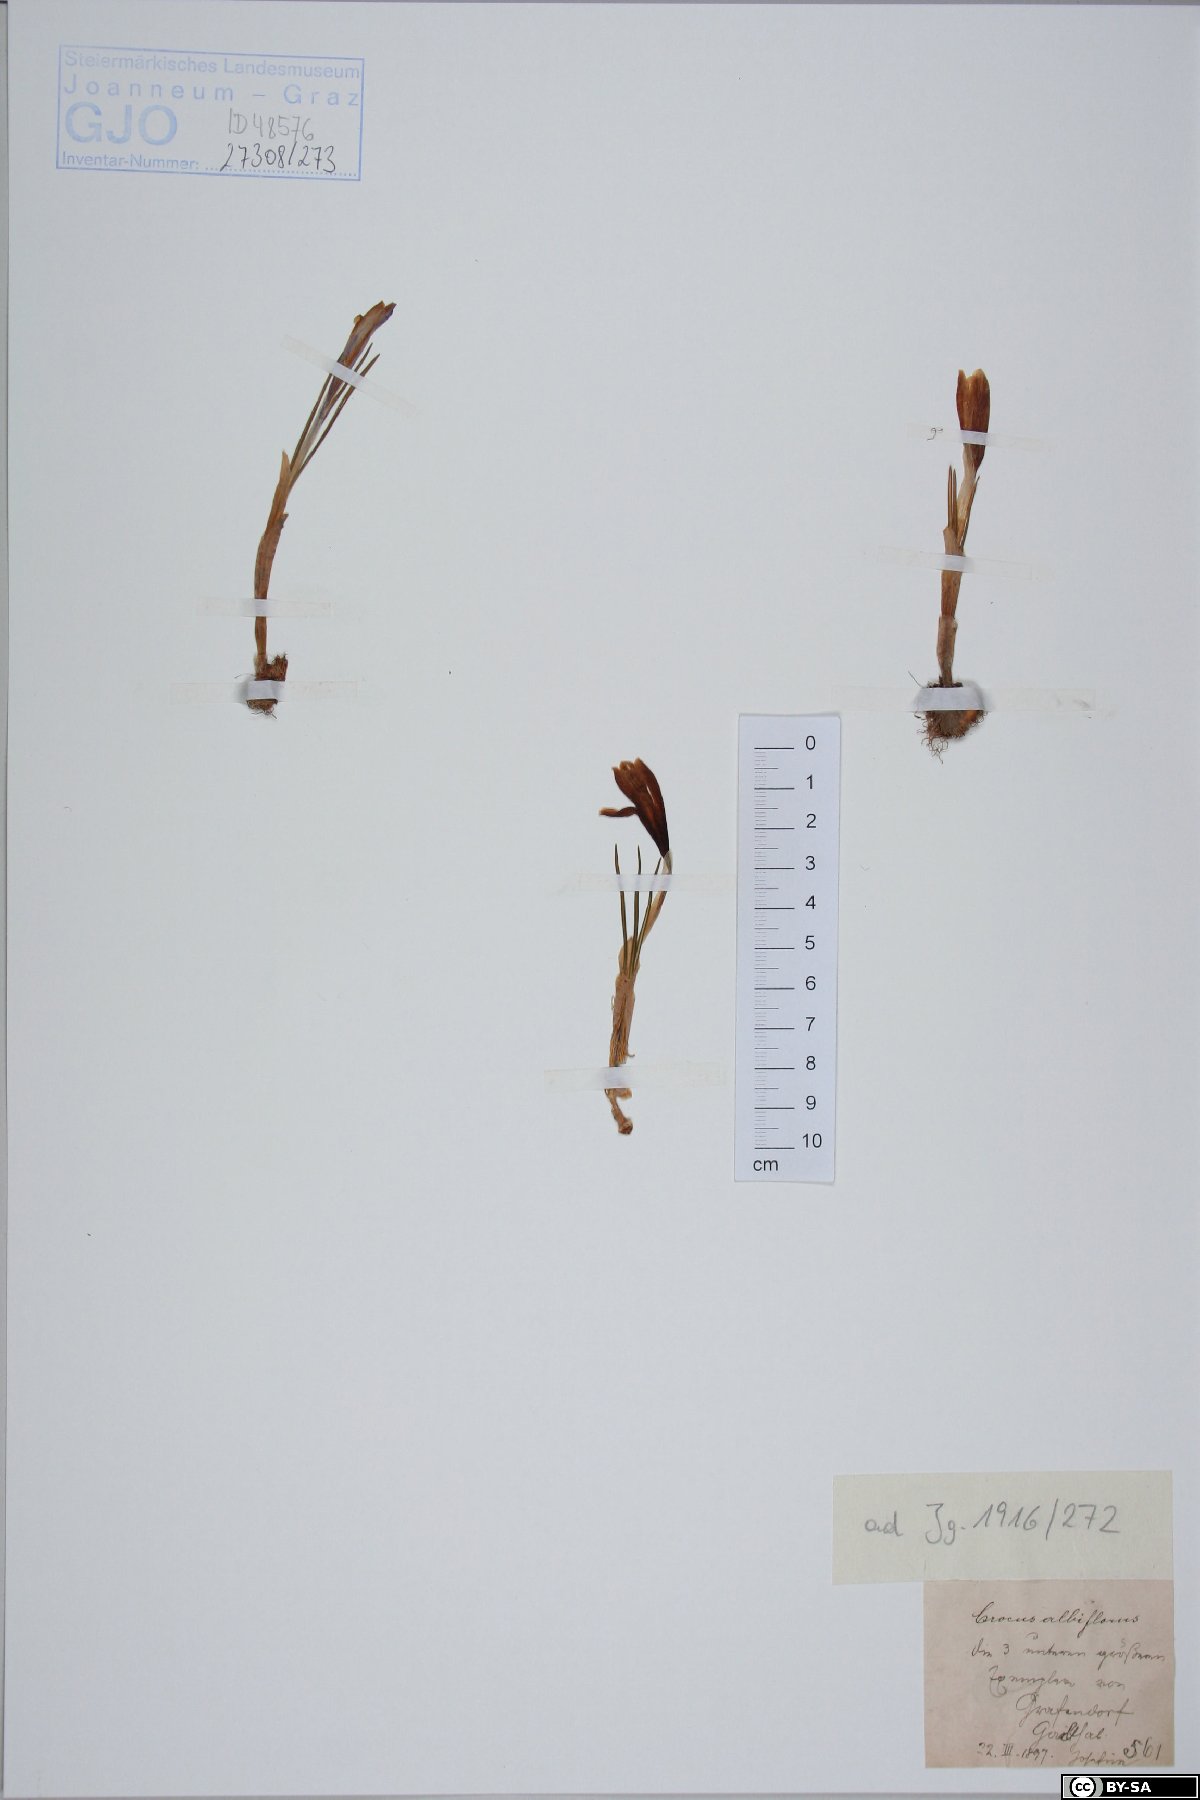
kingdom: Plantae
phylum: Tracheophyta
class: Liliopsida
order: Asparagales
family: Iridaceae
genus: Crocus
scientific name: Crocus vernus
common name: Spring crocus
